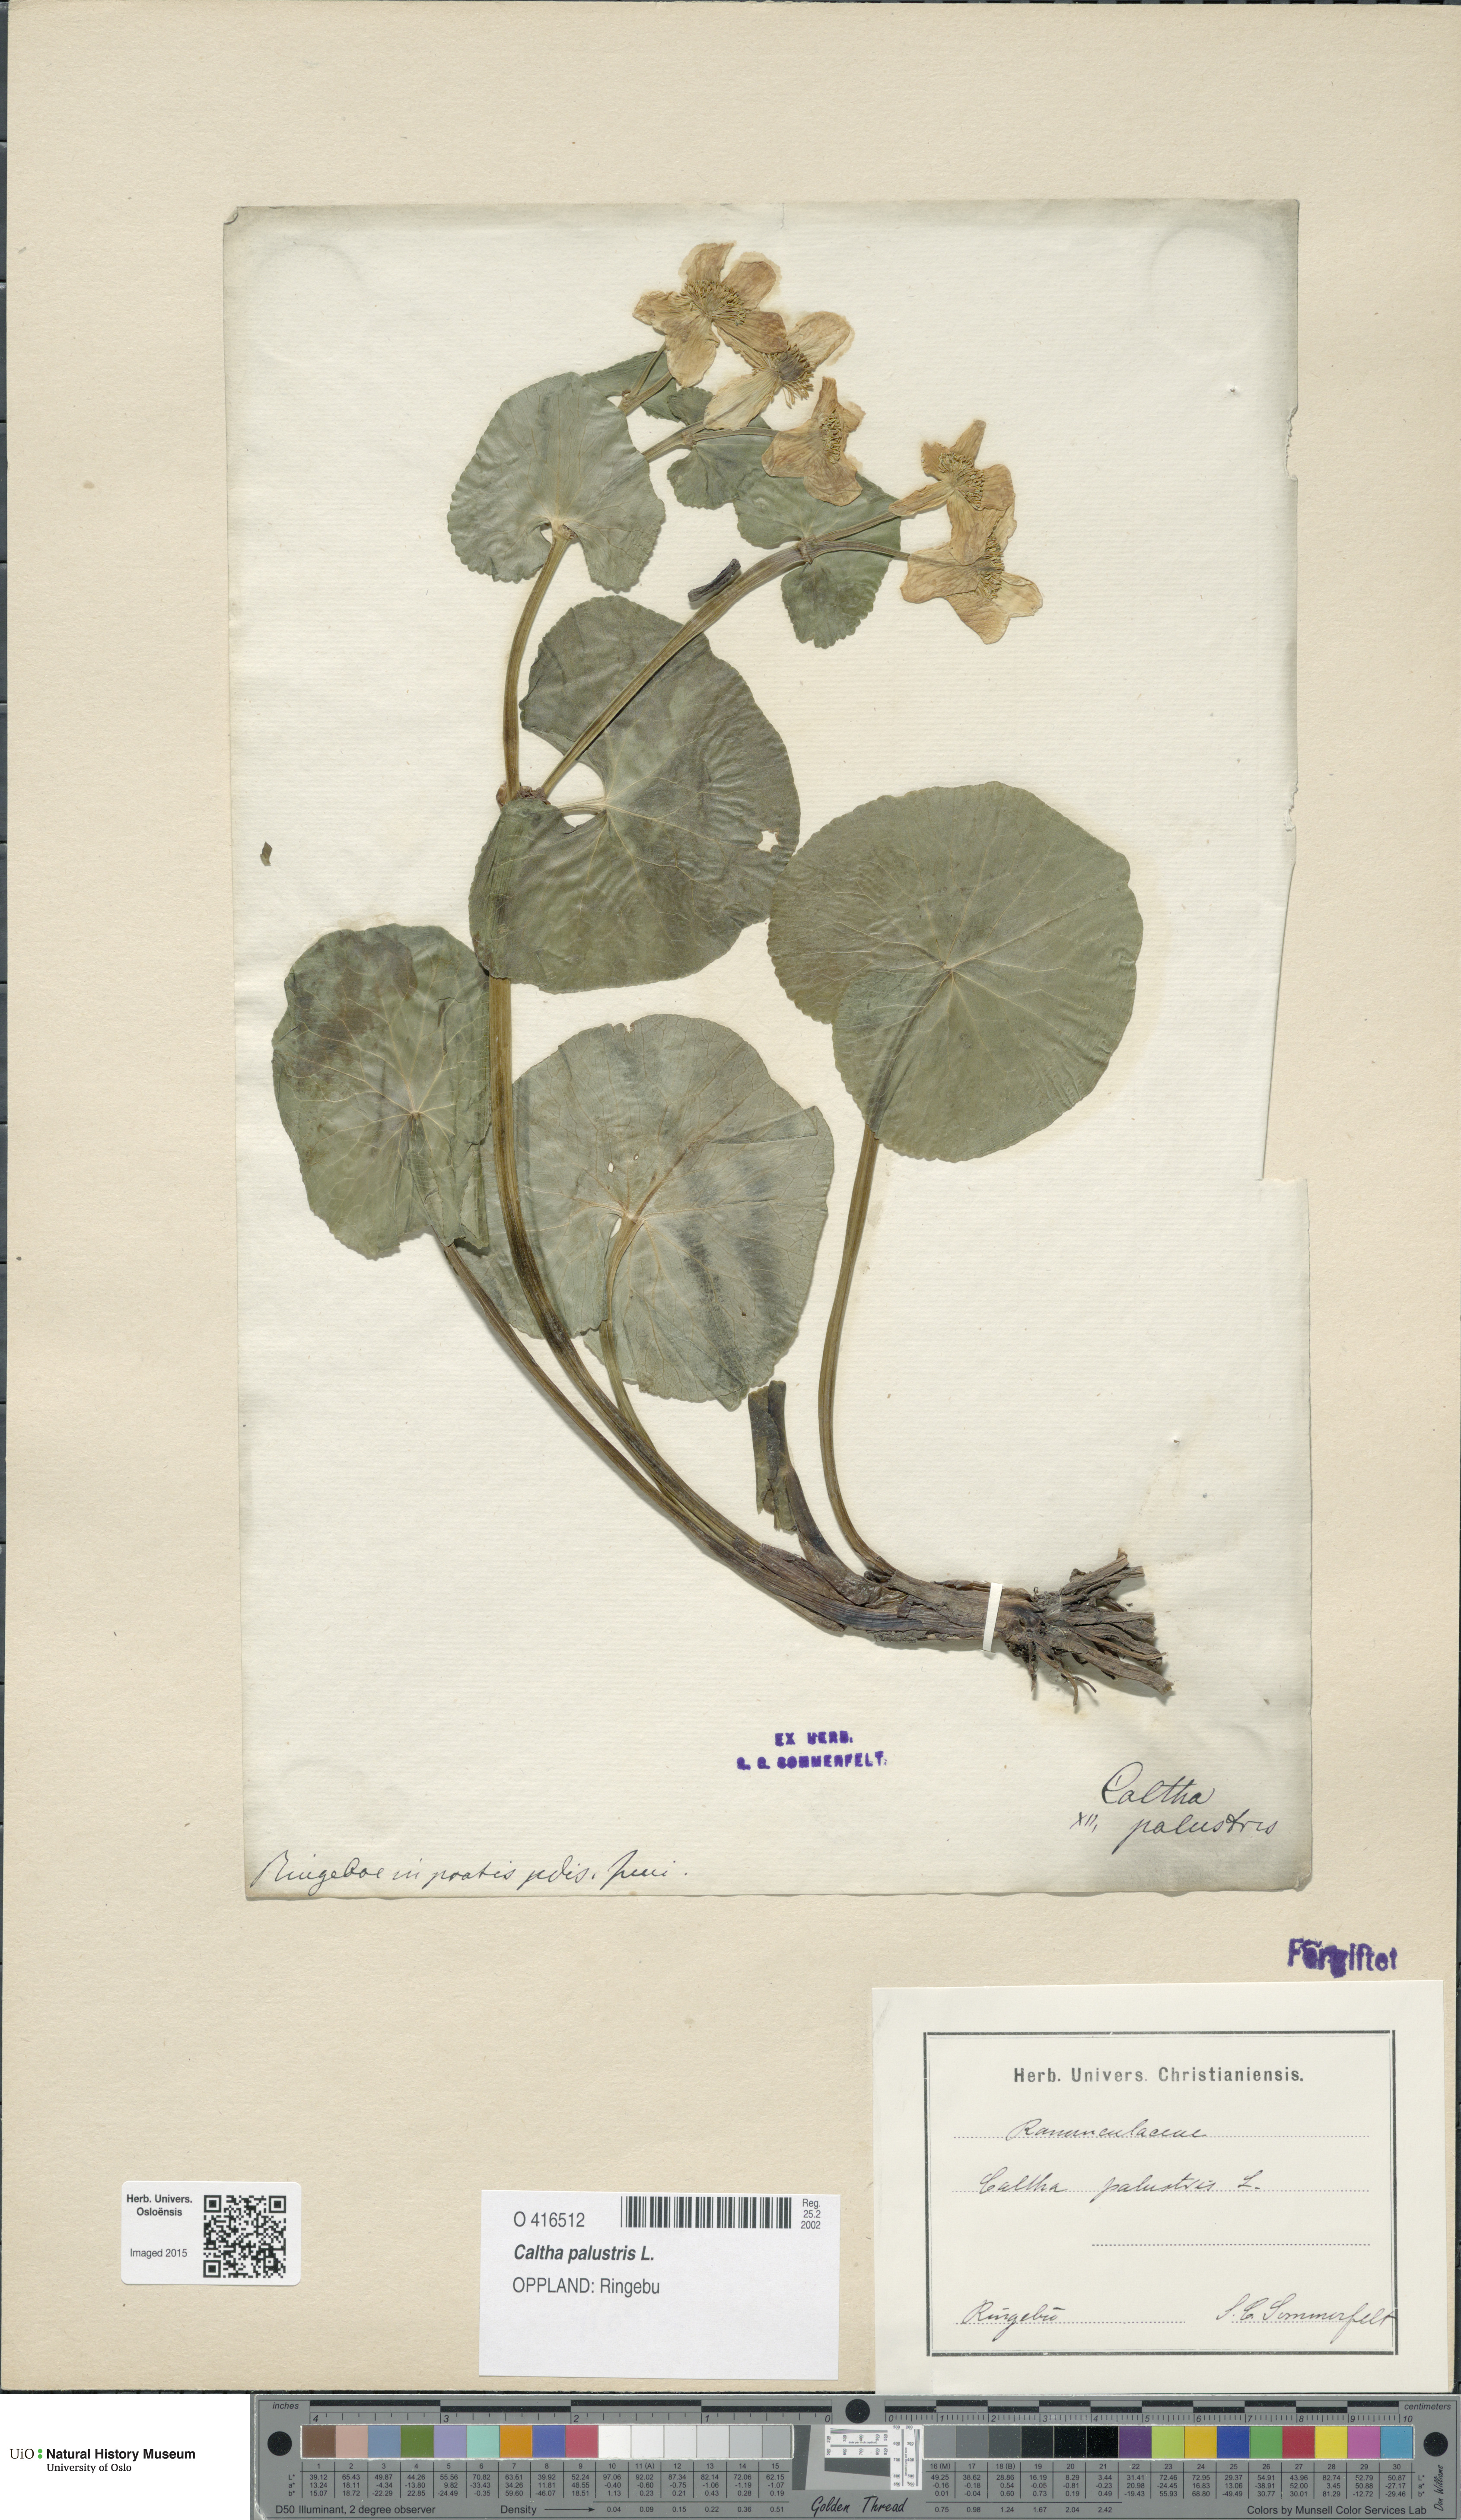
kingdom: Plantae
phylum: Tracheophyta
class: Magnoliopsida
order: Ranunculales
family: Ranunculaceae
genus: Caltha
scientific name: Caltha palustris
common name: Marsh marigold
